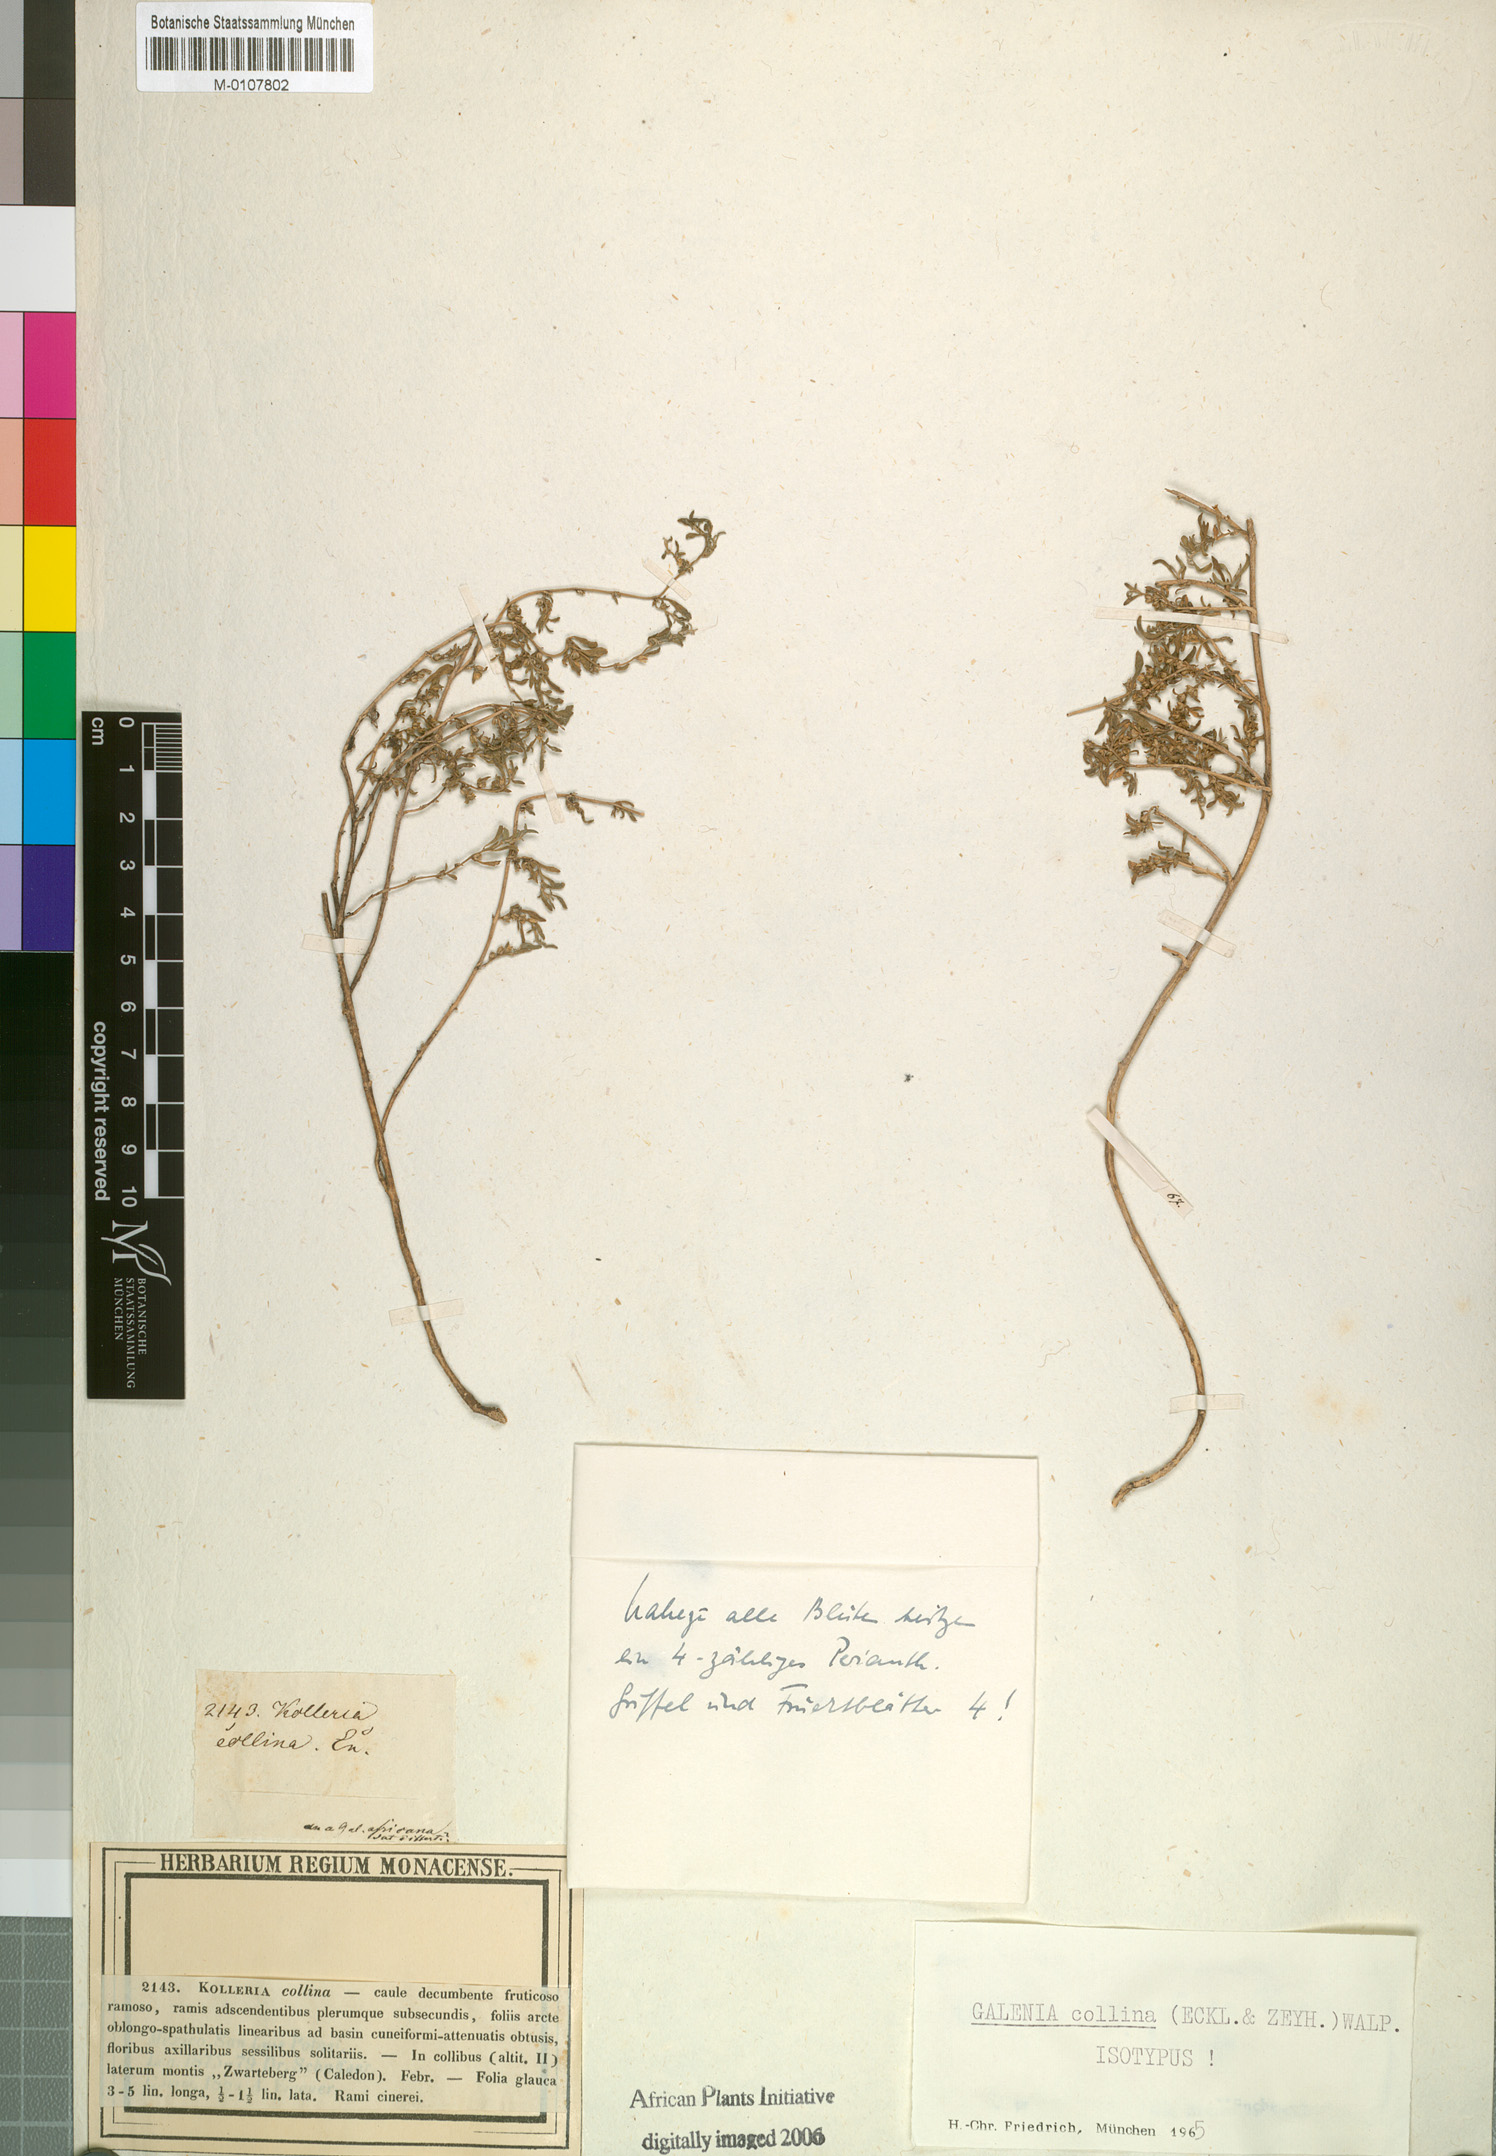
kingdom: Plantae
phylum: Tracheophyta
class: Magnoliopsida
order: Caryophyllales
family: Aizoaceae
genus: Aizoon
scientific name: Aizoon collinum
